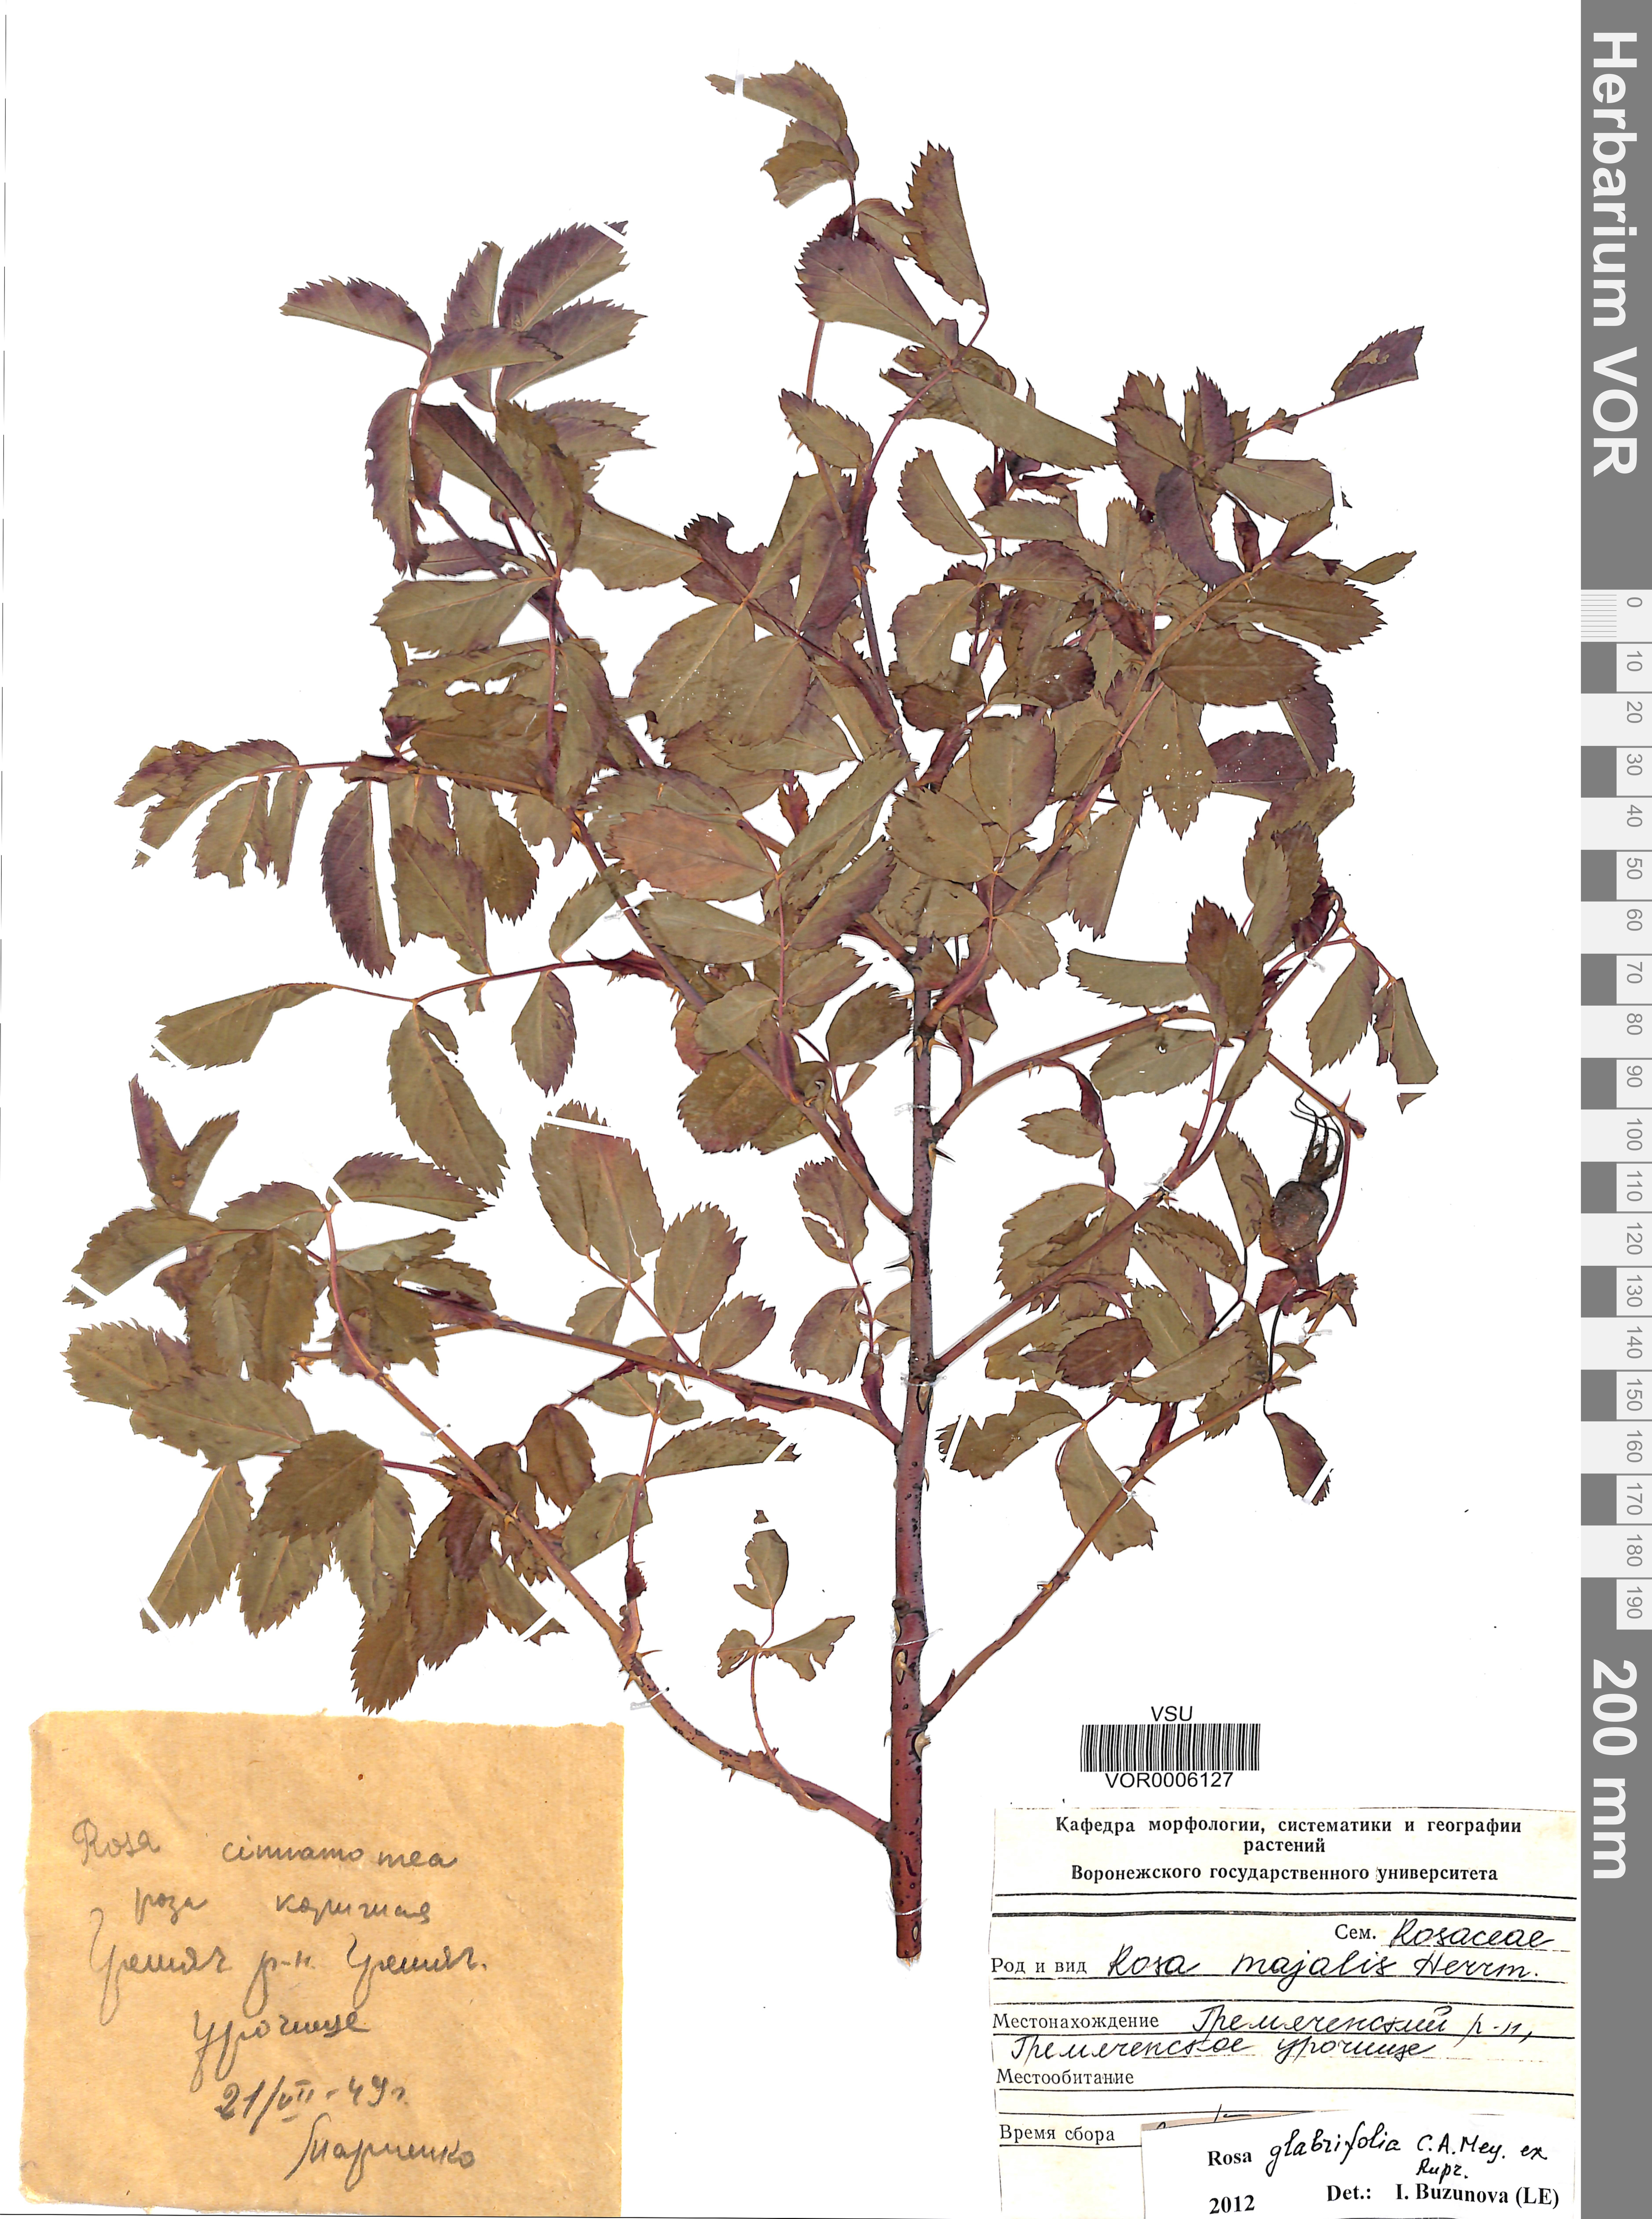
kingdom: Plantae
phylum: Tracheophyta
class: Magnoliopsida
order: Rosales
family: Rosaceae
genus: Rosa
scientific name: Rosa glabrifolia
